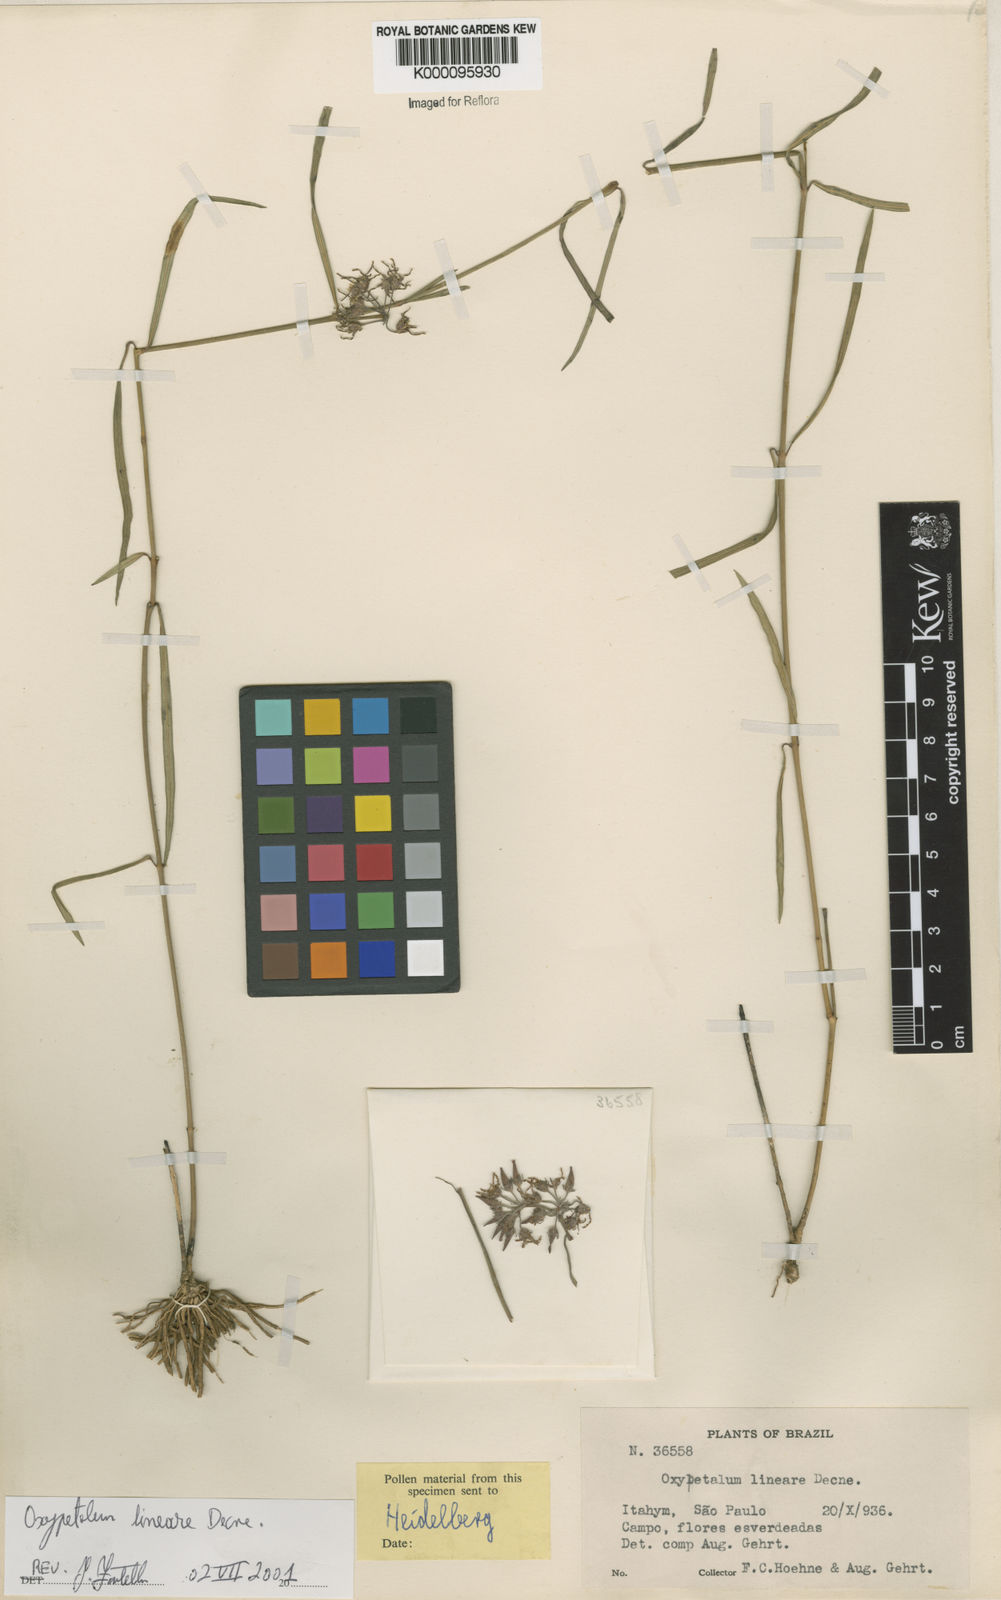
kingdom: Plantae
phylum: Tracheophyta
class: Magnoliopsida
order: Gentianales
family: Apocynaceae
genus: Oxypetalum
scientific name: Oxypetalum lineare
